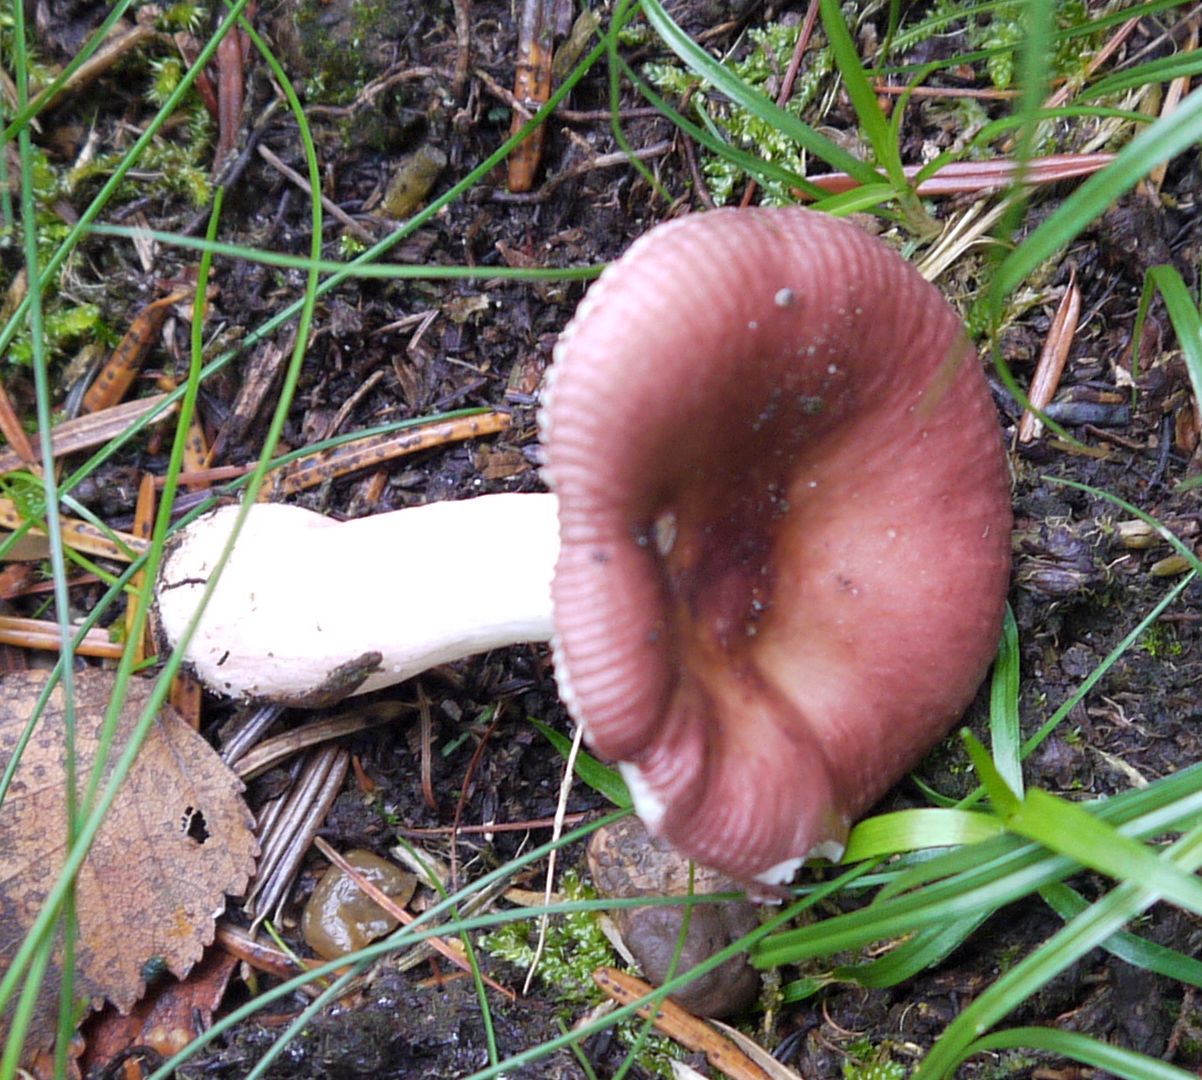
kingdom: Fungi
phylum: Basidiomycota
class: Agaricomycetes
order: Russulales
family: Russulaceae
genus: Russula
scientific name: Russula nitida
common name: året skørhat
